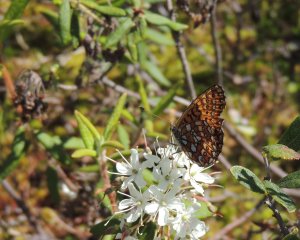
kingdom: Animalia
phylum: Arthropoda
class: Insecta
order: Lepidoptera
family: Nymphalidae
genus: Boloria
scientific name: Boloria eunomia
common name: Bog Fritillary
